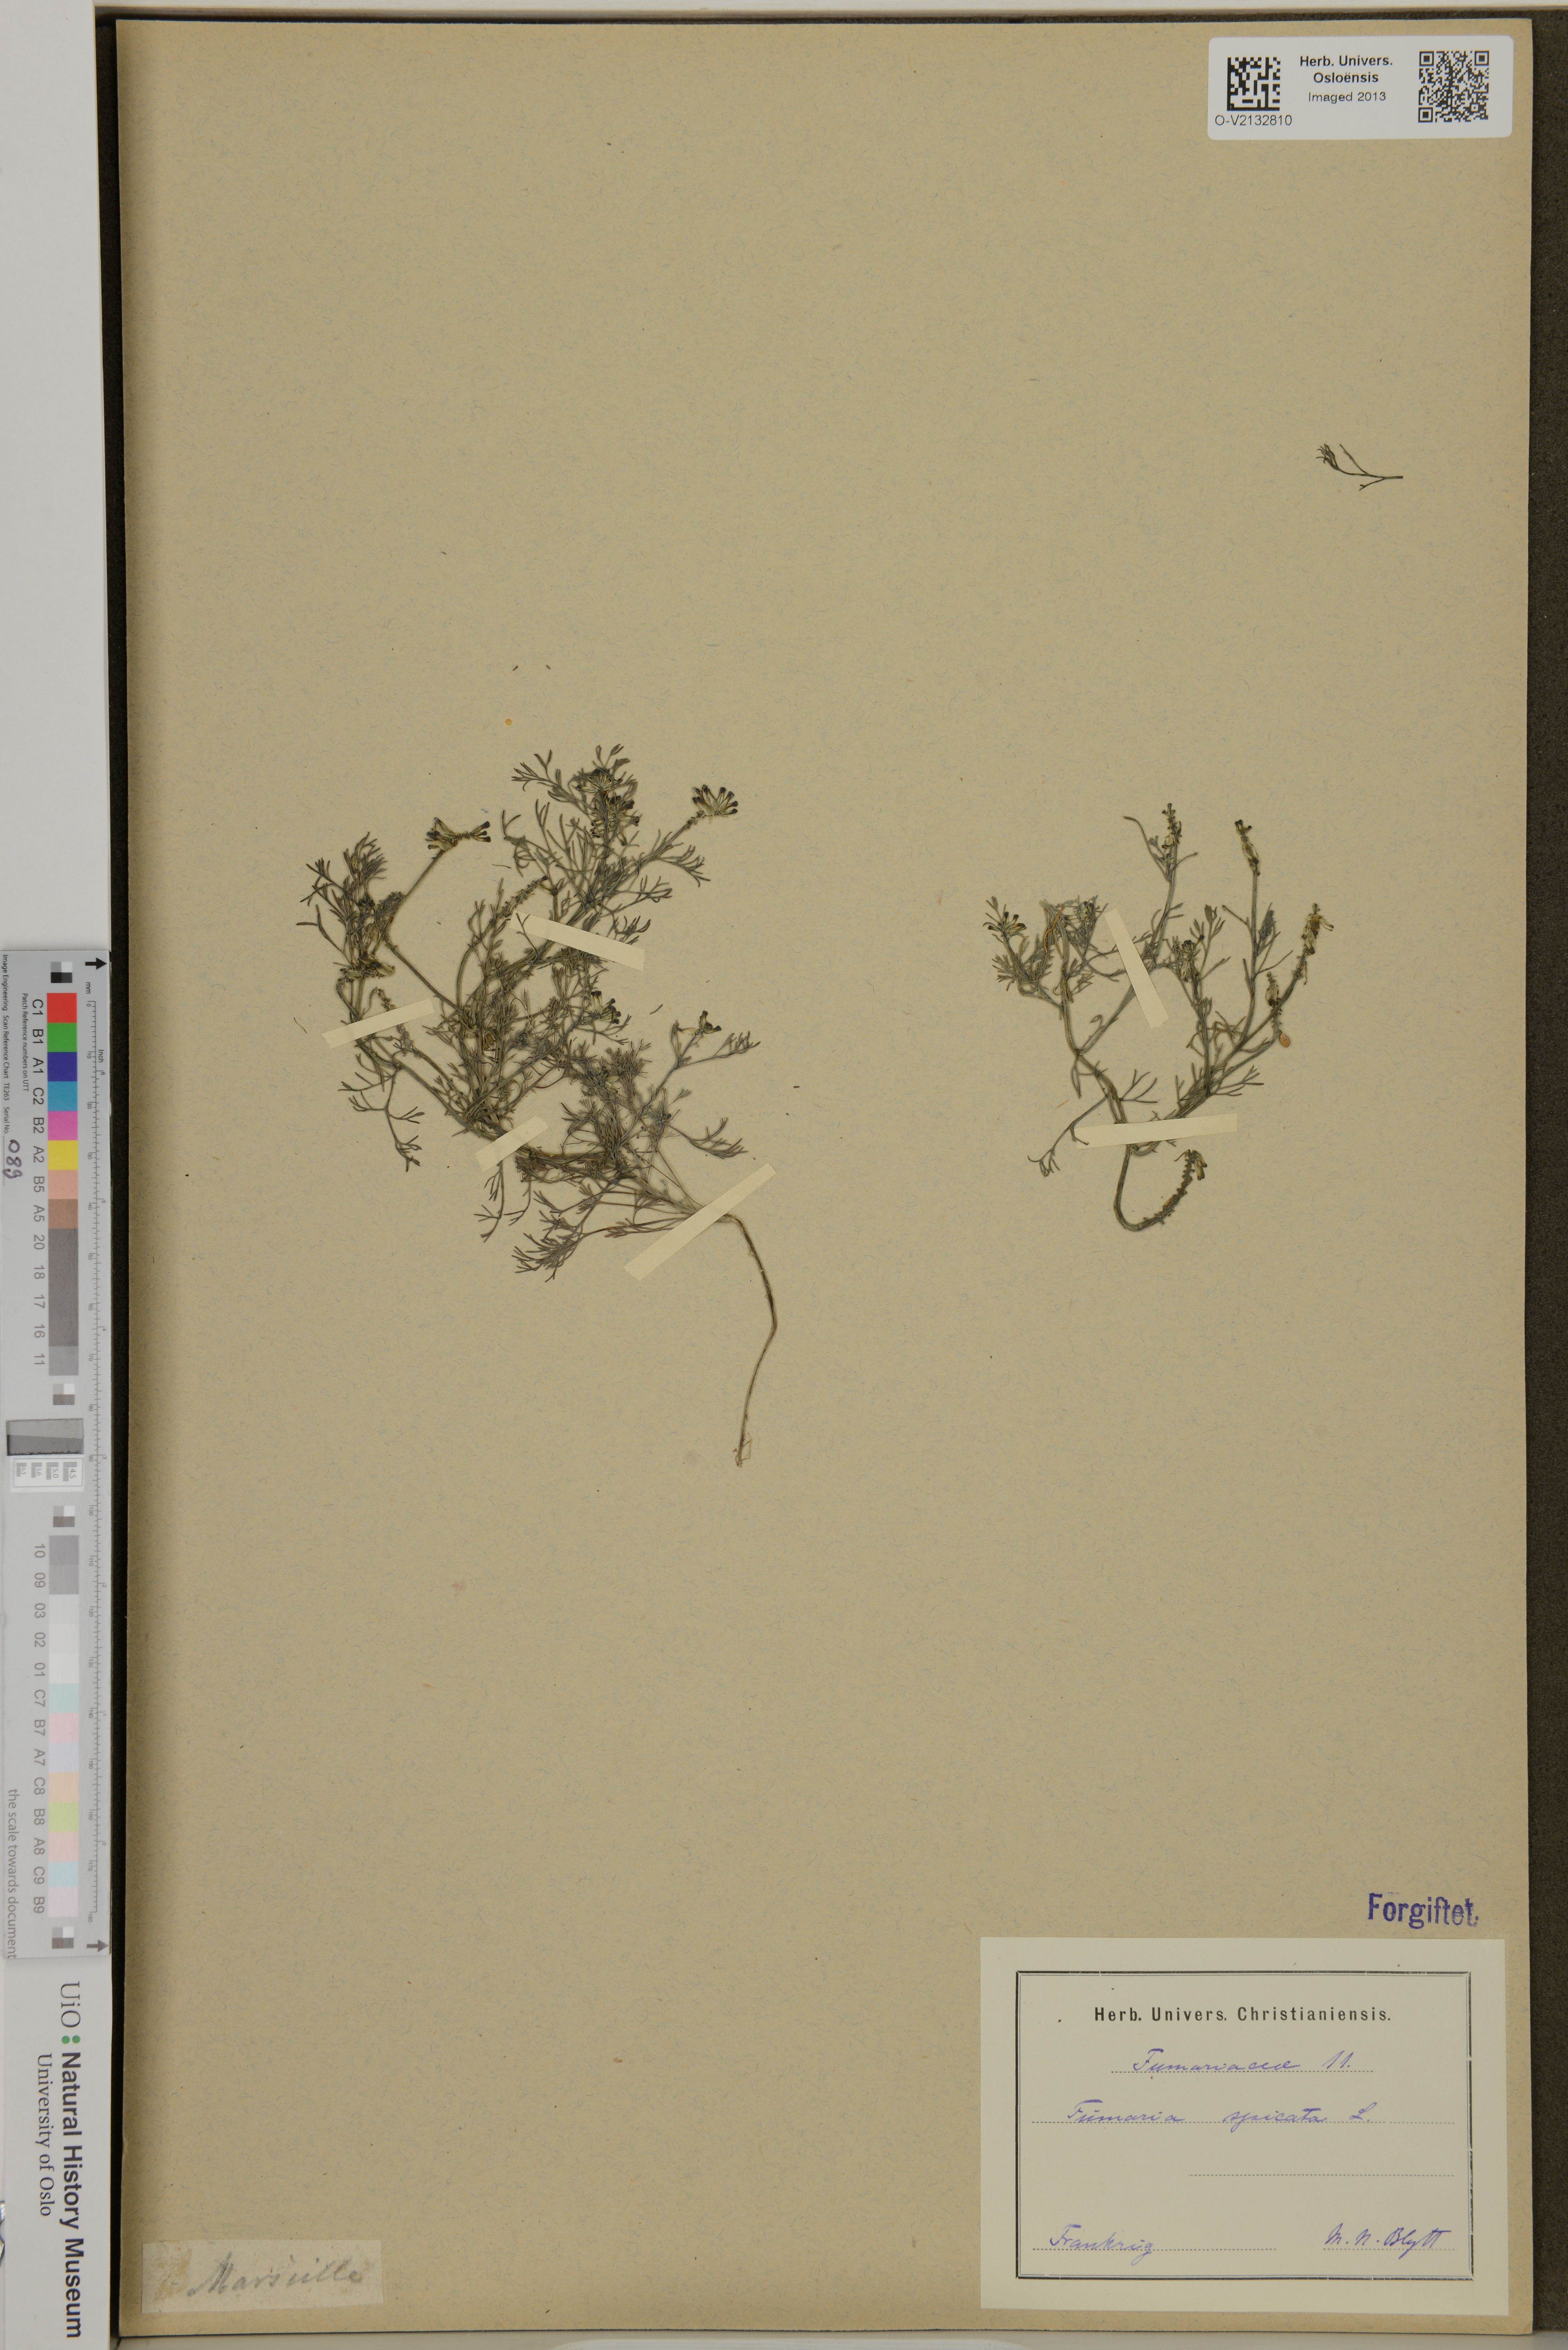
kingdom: Plantae
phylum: Tracheophyta
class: Magnoliopsida
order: Ranunculales
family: Papaveraceae
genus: Fumaria
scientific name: Fumaria
